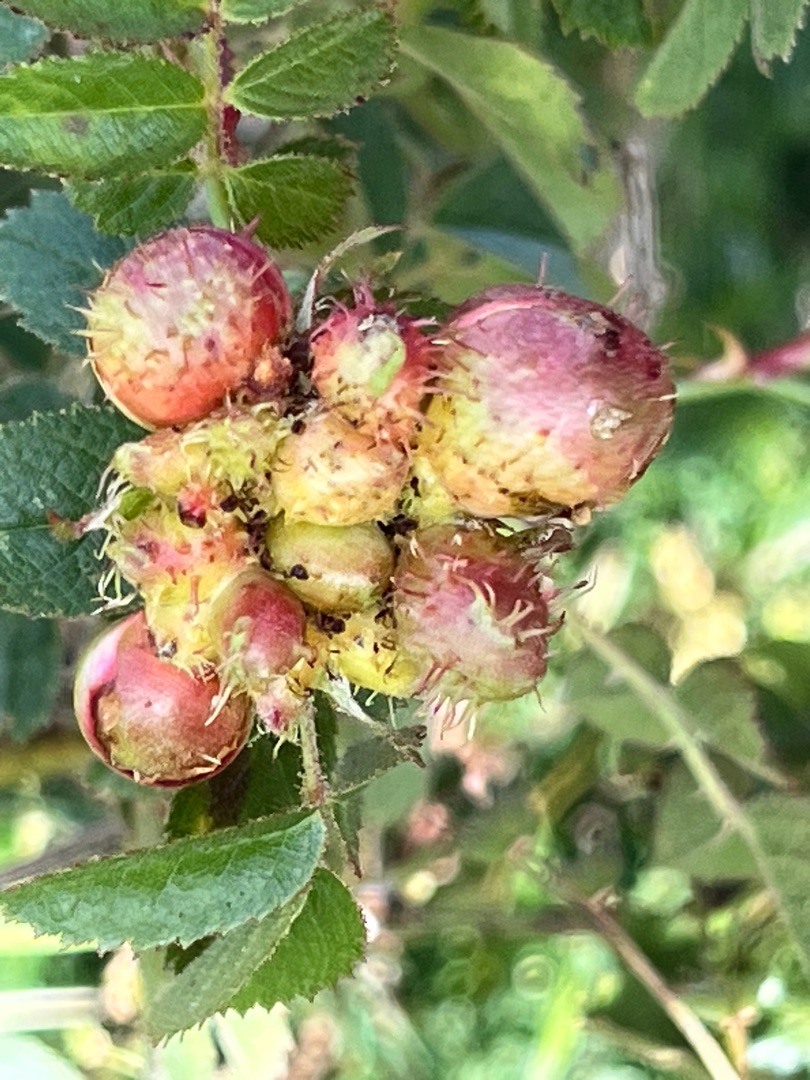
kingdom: Animalia
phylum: Arthropoda
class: Insecta
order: Hymenoptera
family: Cynipidae
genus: Diplolepis
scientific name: Diplolepis mayri
